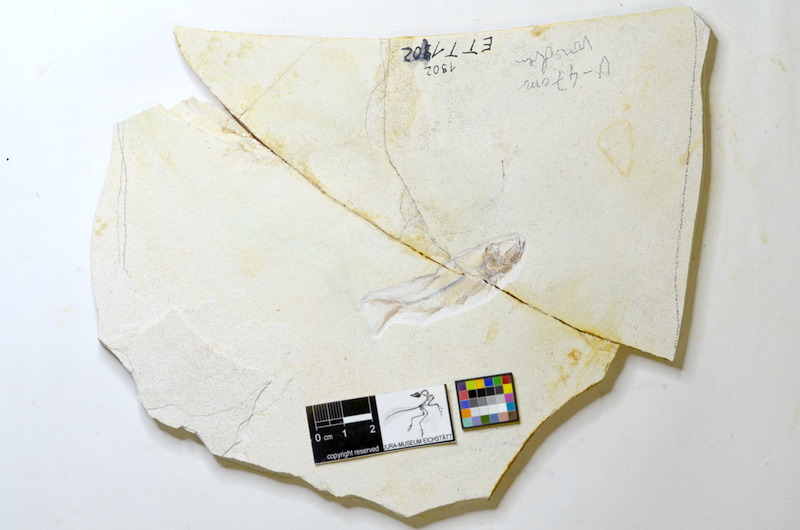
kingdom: Animalia
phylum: Chordata
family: Ascalaboidae
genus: Ebertichthys
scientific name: Ebertichthys ettlingensis
